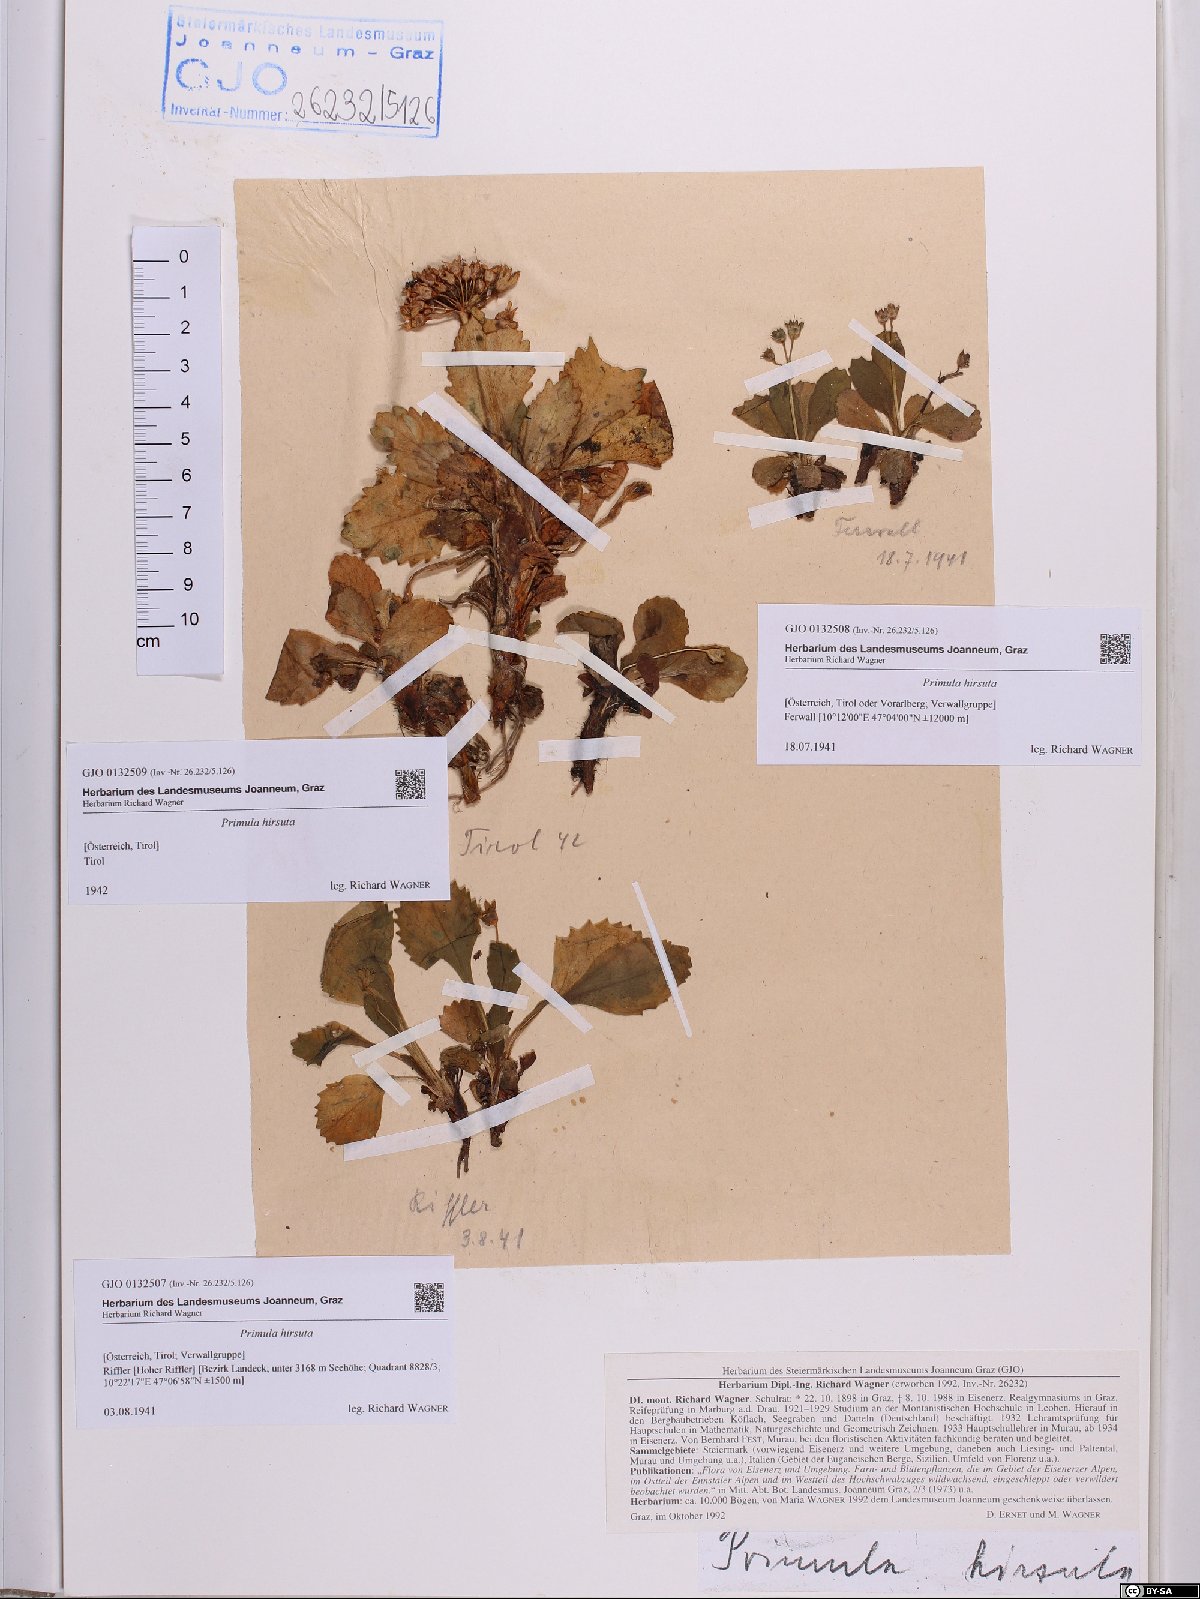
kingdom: Plantae
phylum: Tracheophyta
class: Magnoliopsida
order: Ericales
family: Primulaceae
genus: Primula
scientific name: Primula hirsuta
